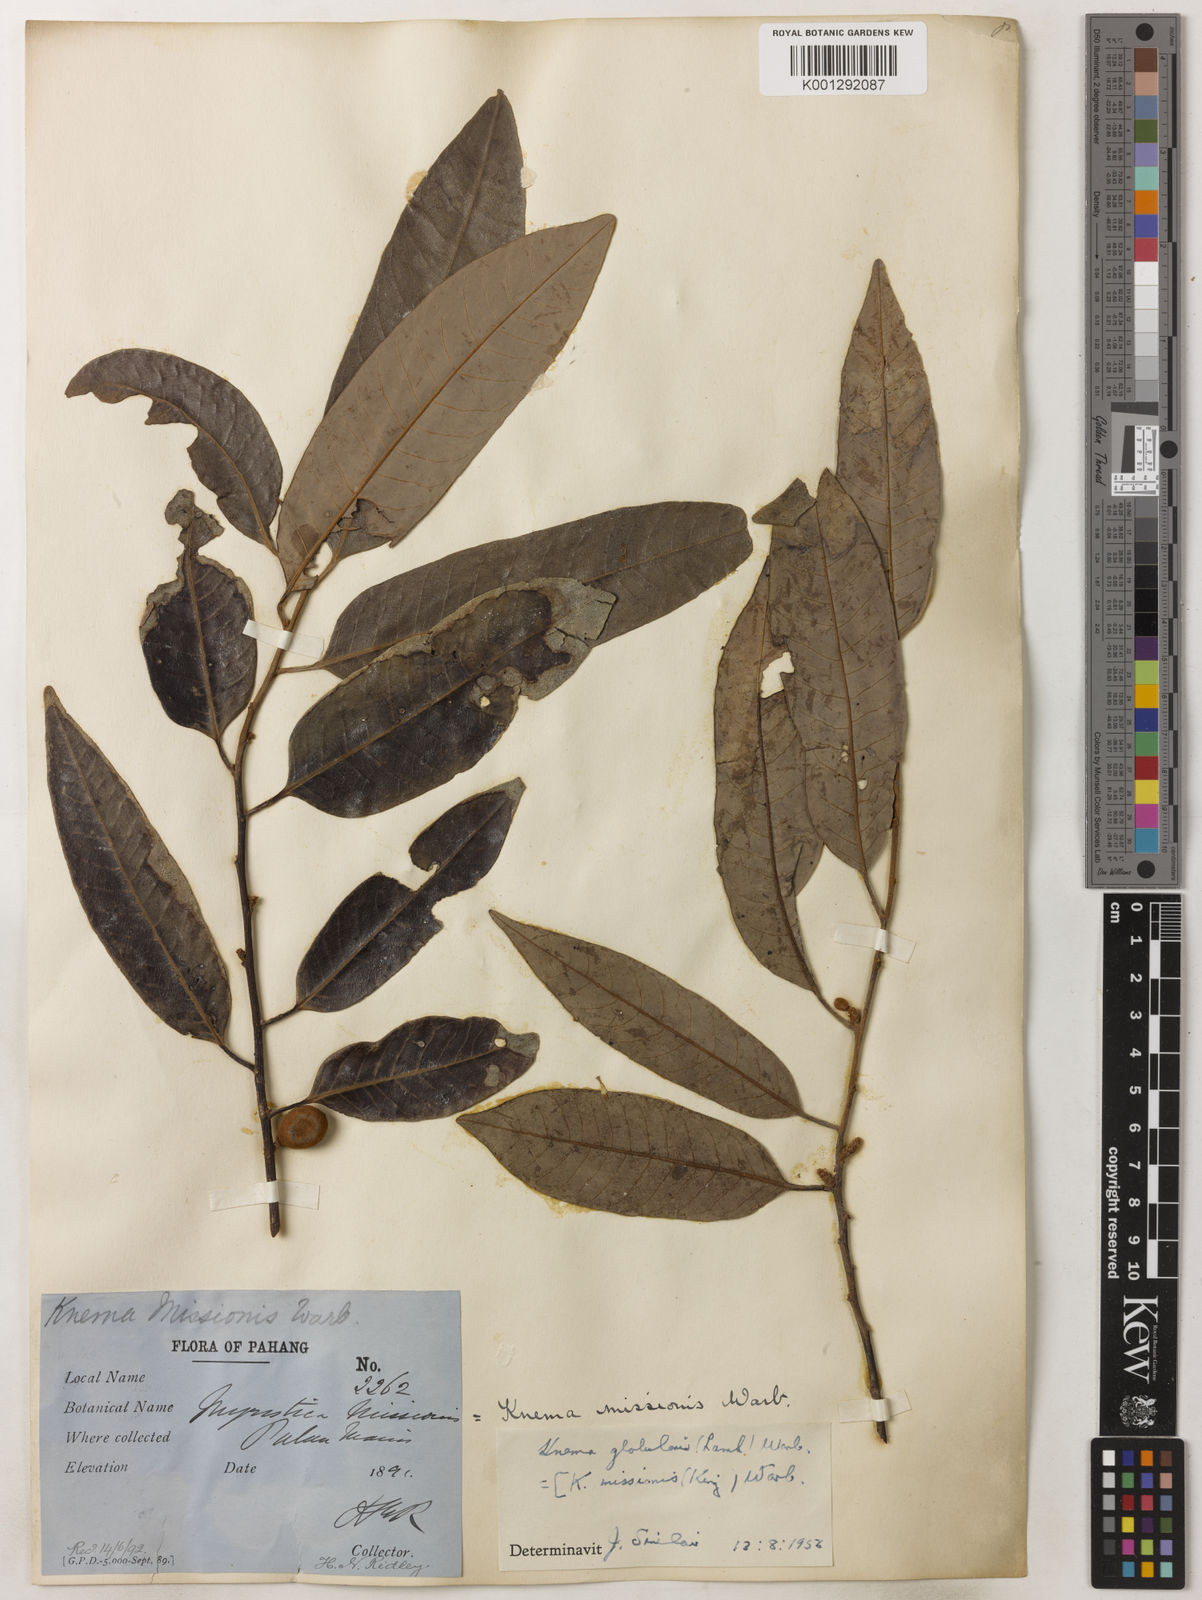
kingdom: Plantae
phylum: Tracheophyta
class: Magnoliopsida
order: Magnoliales
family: Myristicaceae
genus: Knema
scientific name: Knema globularia
